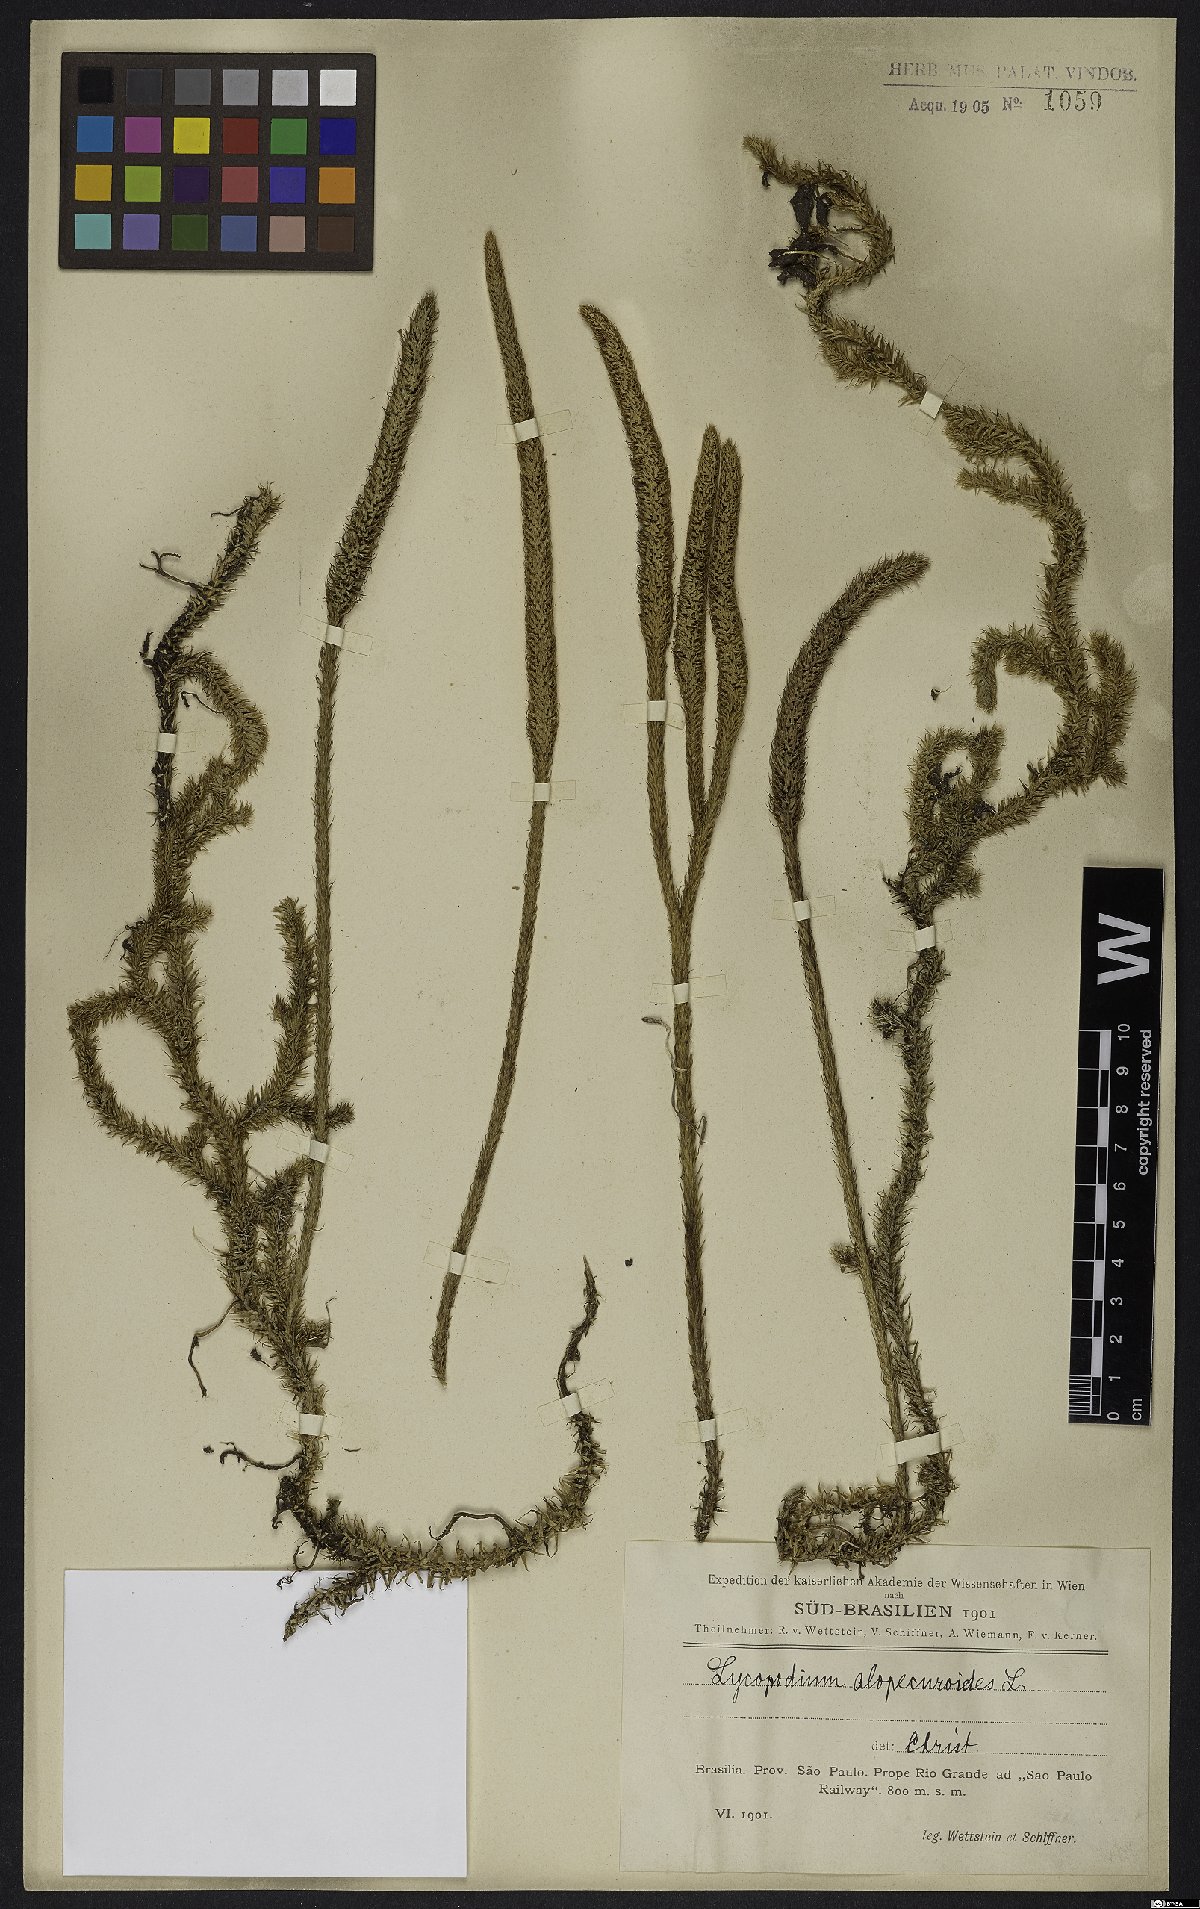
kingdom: Plantae
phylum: Tracheophyta
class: Lycopodiopsida
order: Lycopodiales
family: Lycopodiaceae
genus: Lycopodiella
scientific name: Lycopodiella alopecuroides
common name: Foxtail clubmoss
